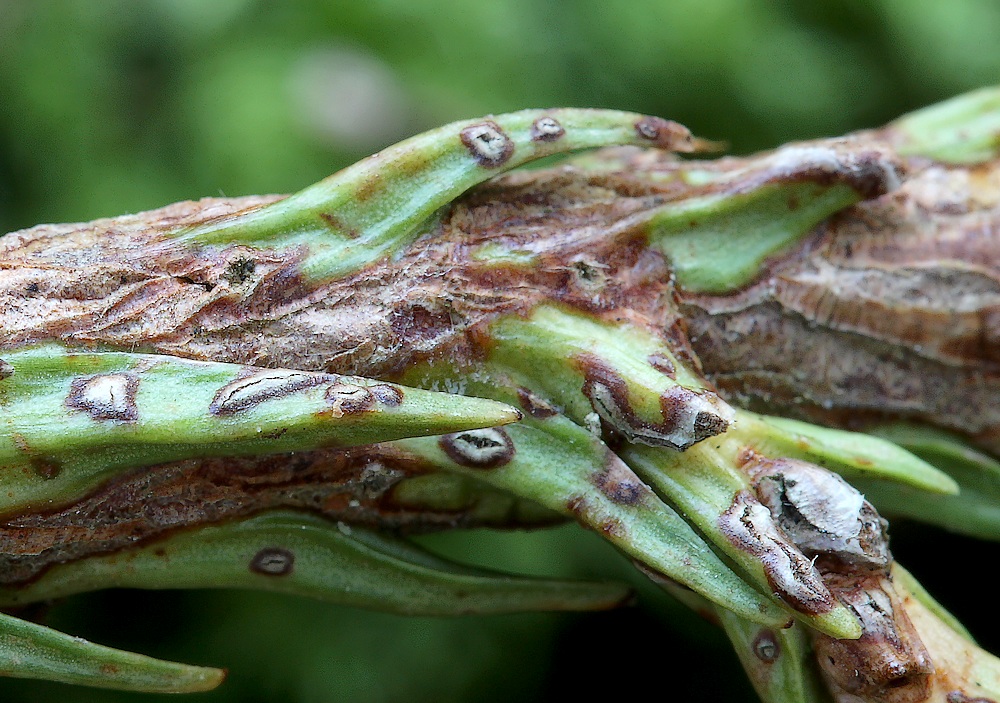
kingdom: Fungi
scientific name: Fungi
